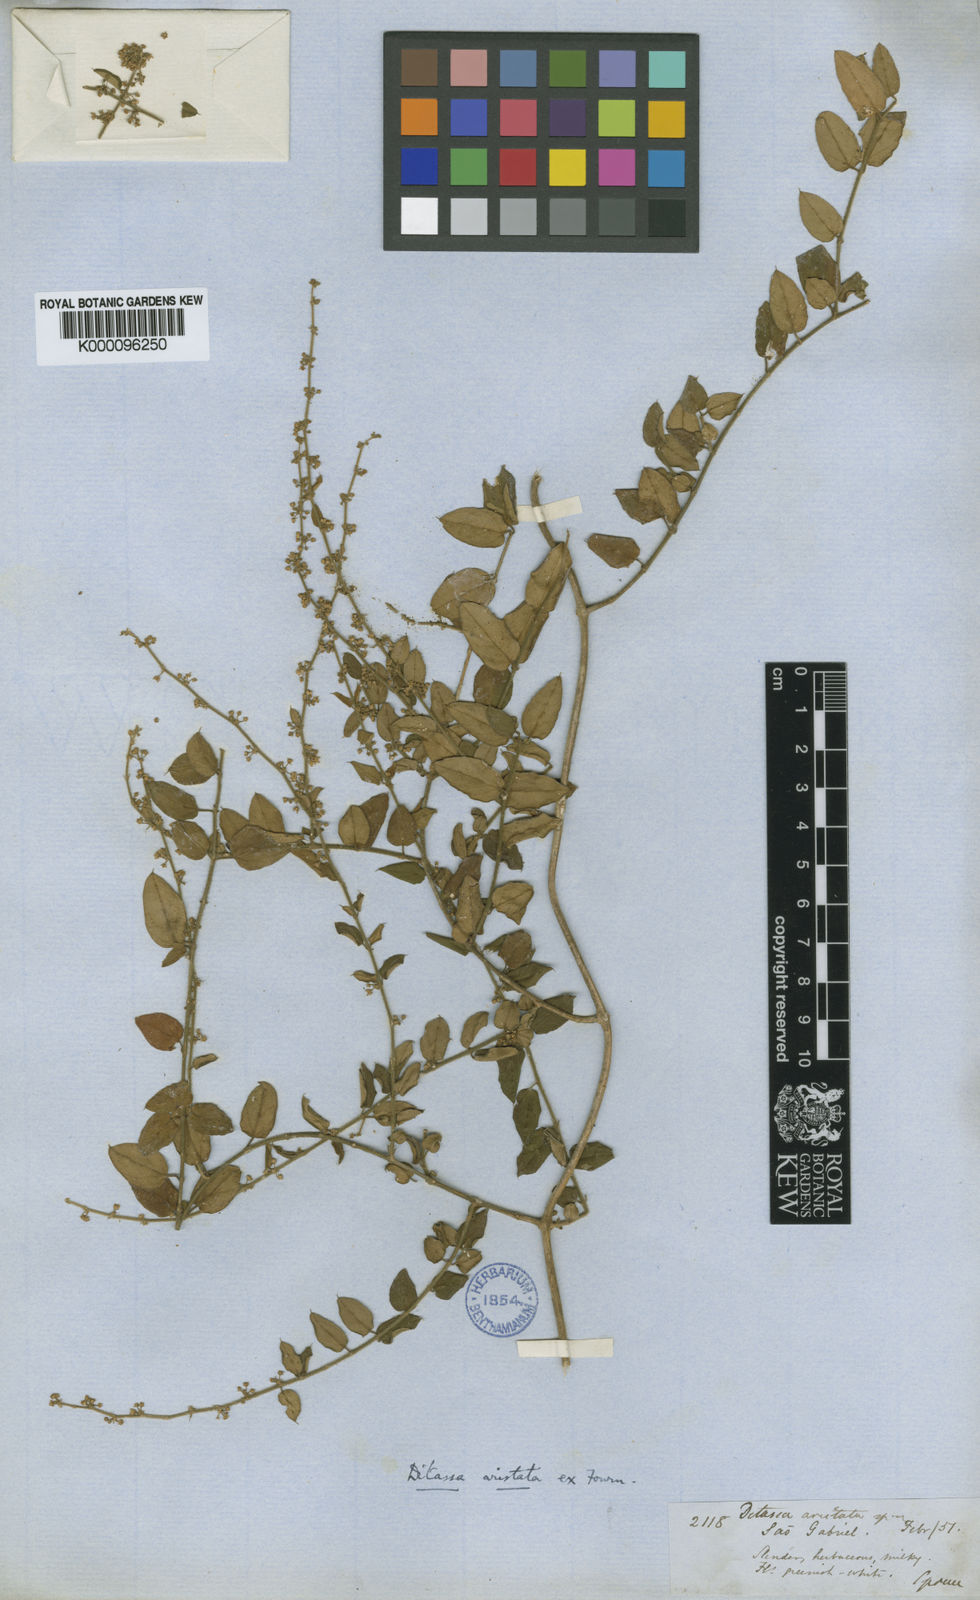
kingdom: Plantae
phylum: Tracheophyta
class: Magnoliopsida
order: Gentianales
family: Apocynaceae
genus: Tassadia
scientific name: Tassadia aristata
